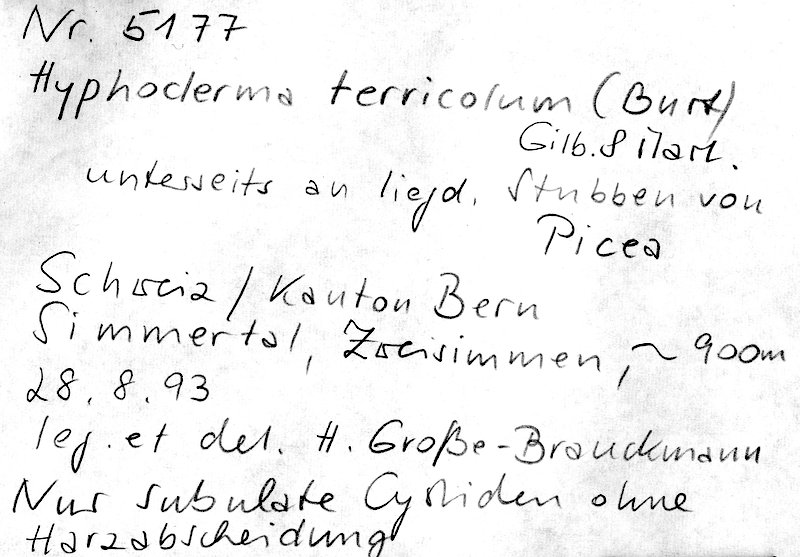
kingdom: Fungi
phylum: Basidiomycota
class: Agaricomycetes
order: Polyporales
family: Meruliaceae
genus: Conohypha
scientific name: Conohypha terricola
